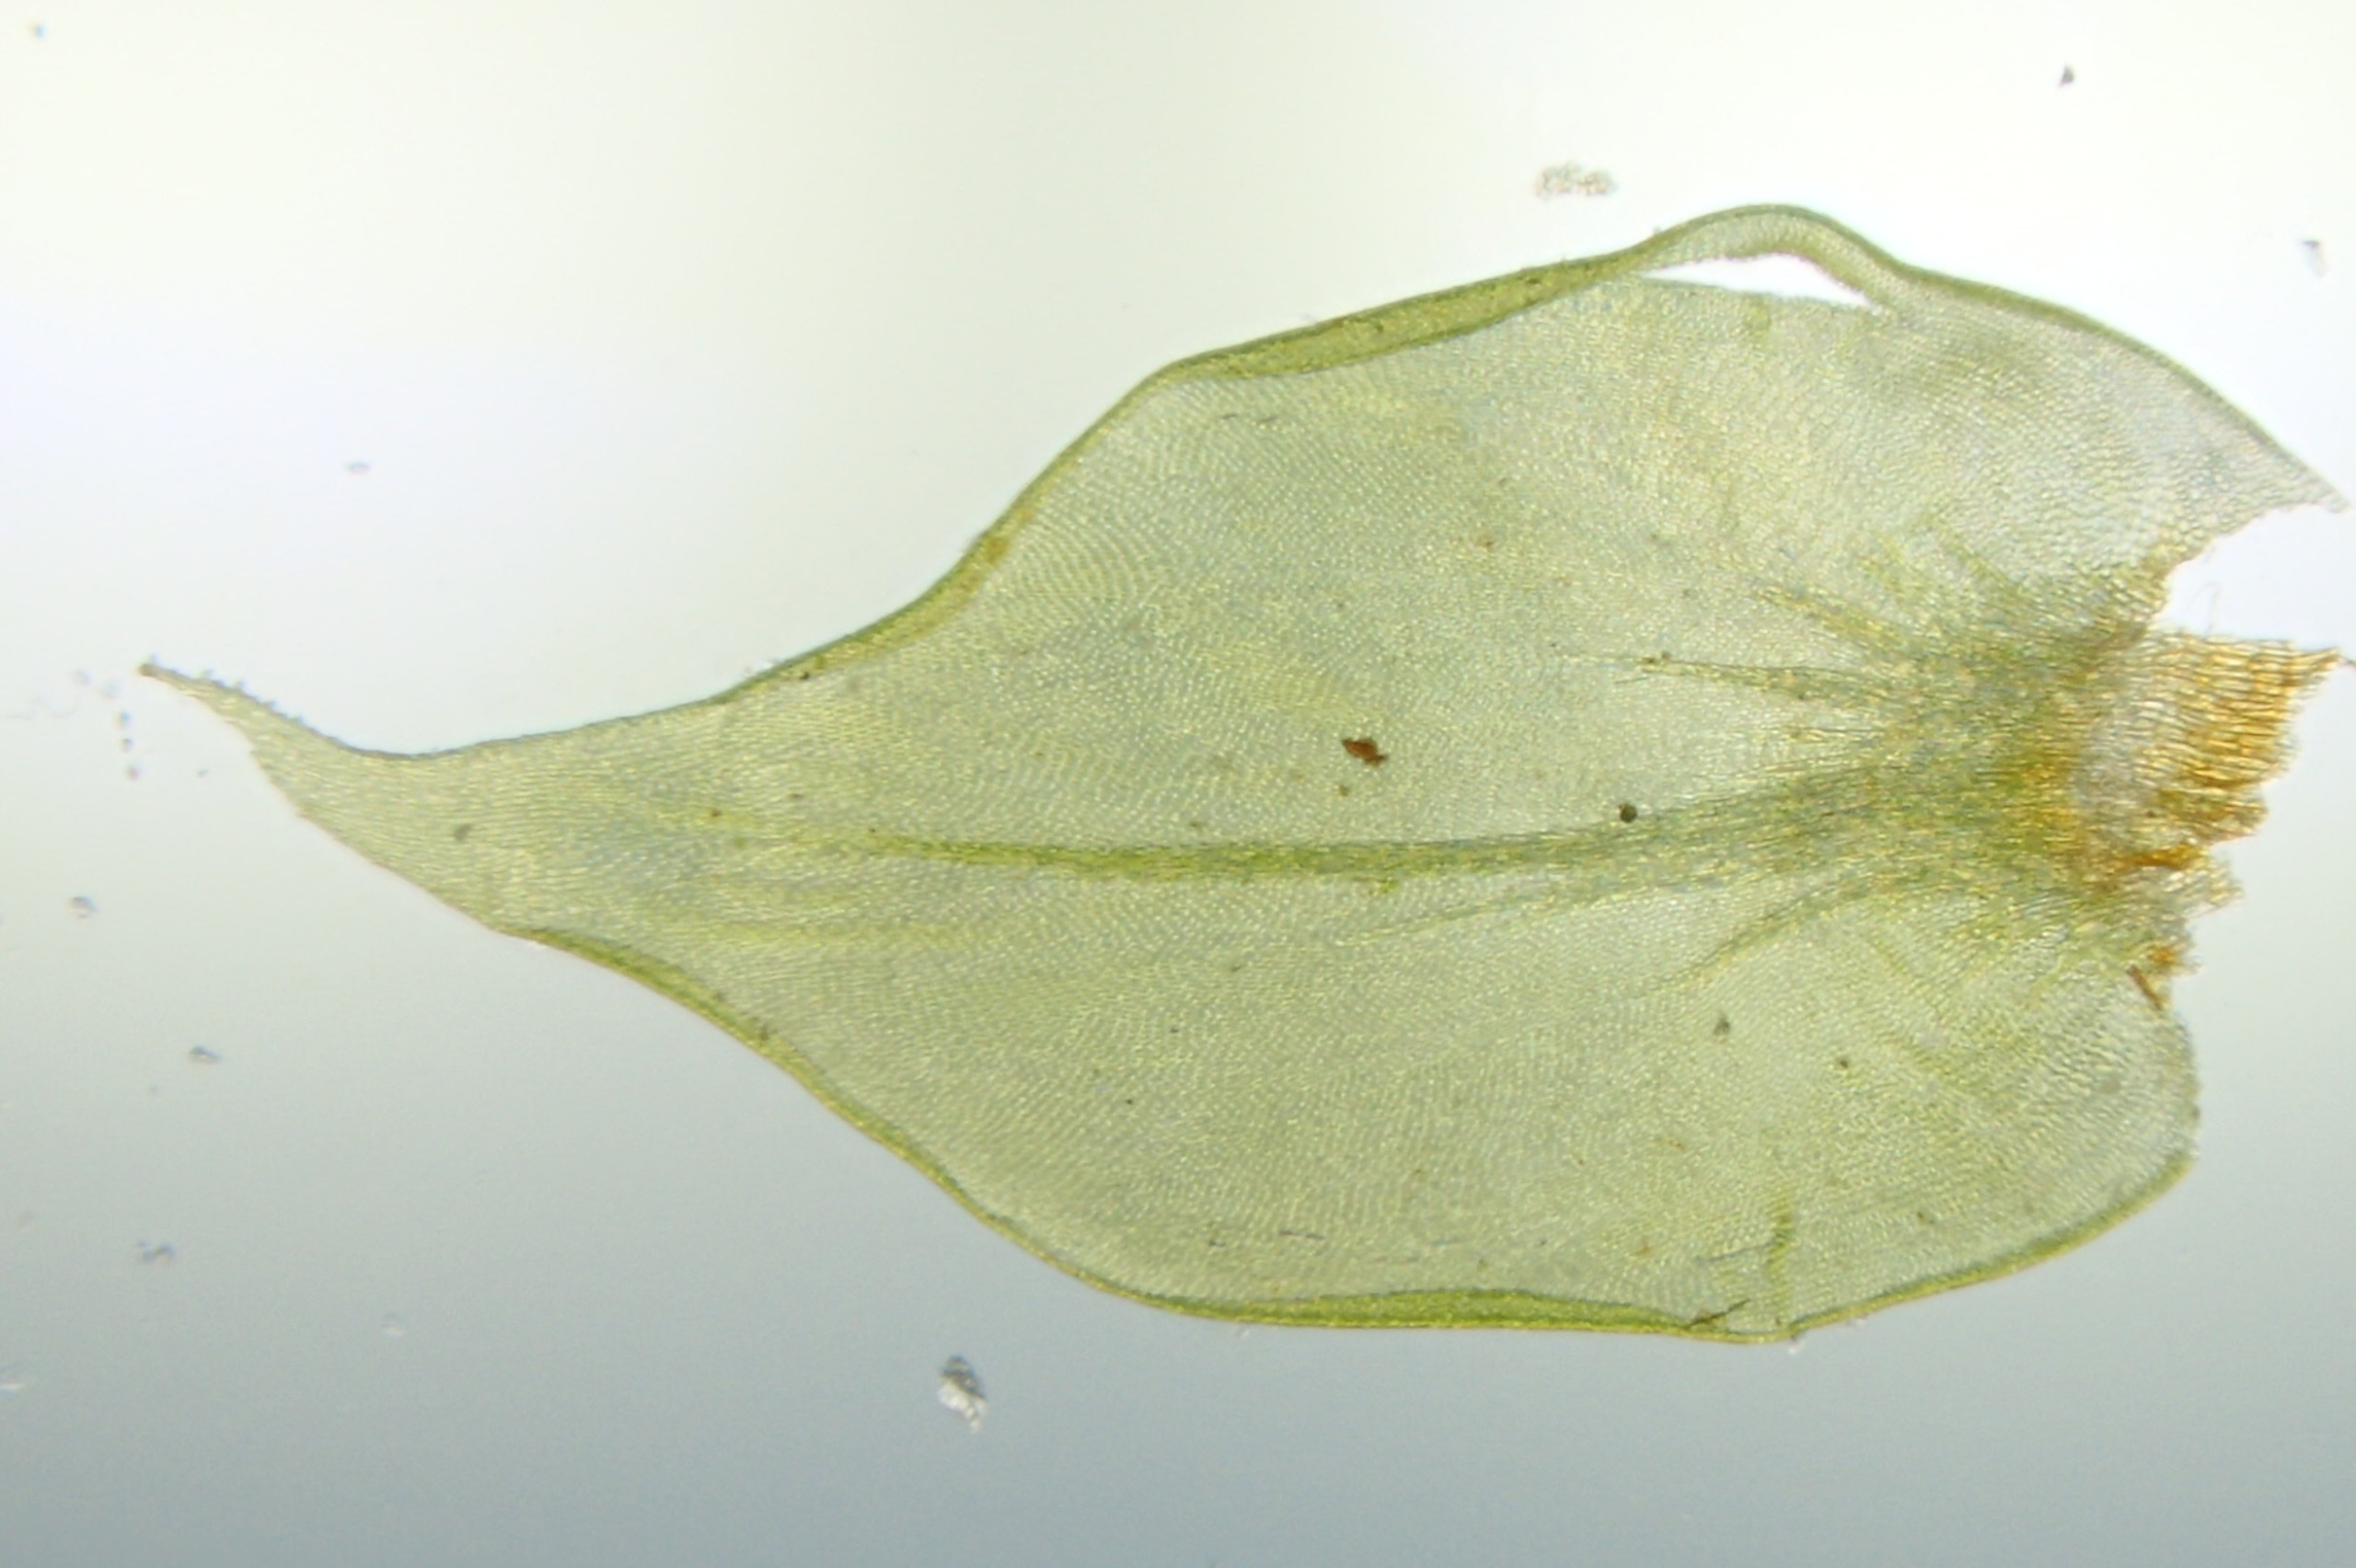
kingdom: Plantae
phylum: Bryophyta
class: Bryopsida
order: Hypnales
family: Antitrichiaceae
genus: Antitrichia
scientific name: Antitrichia curtipendula
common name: Åben krogtand
